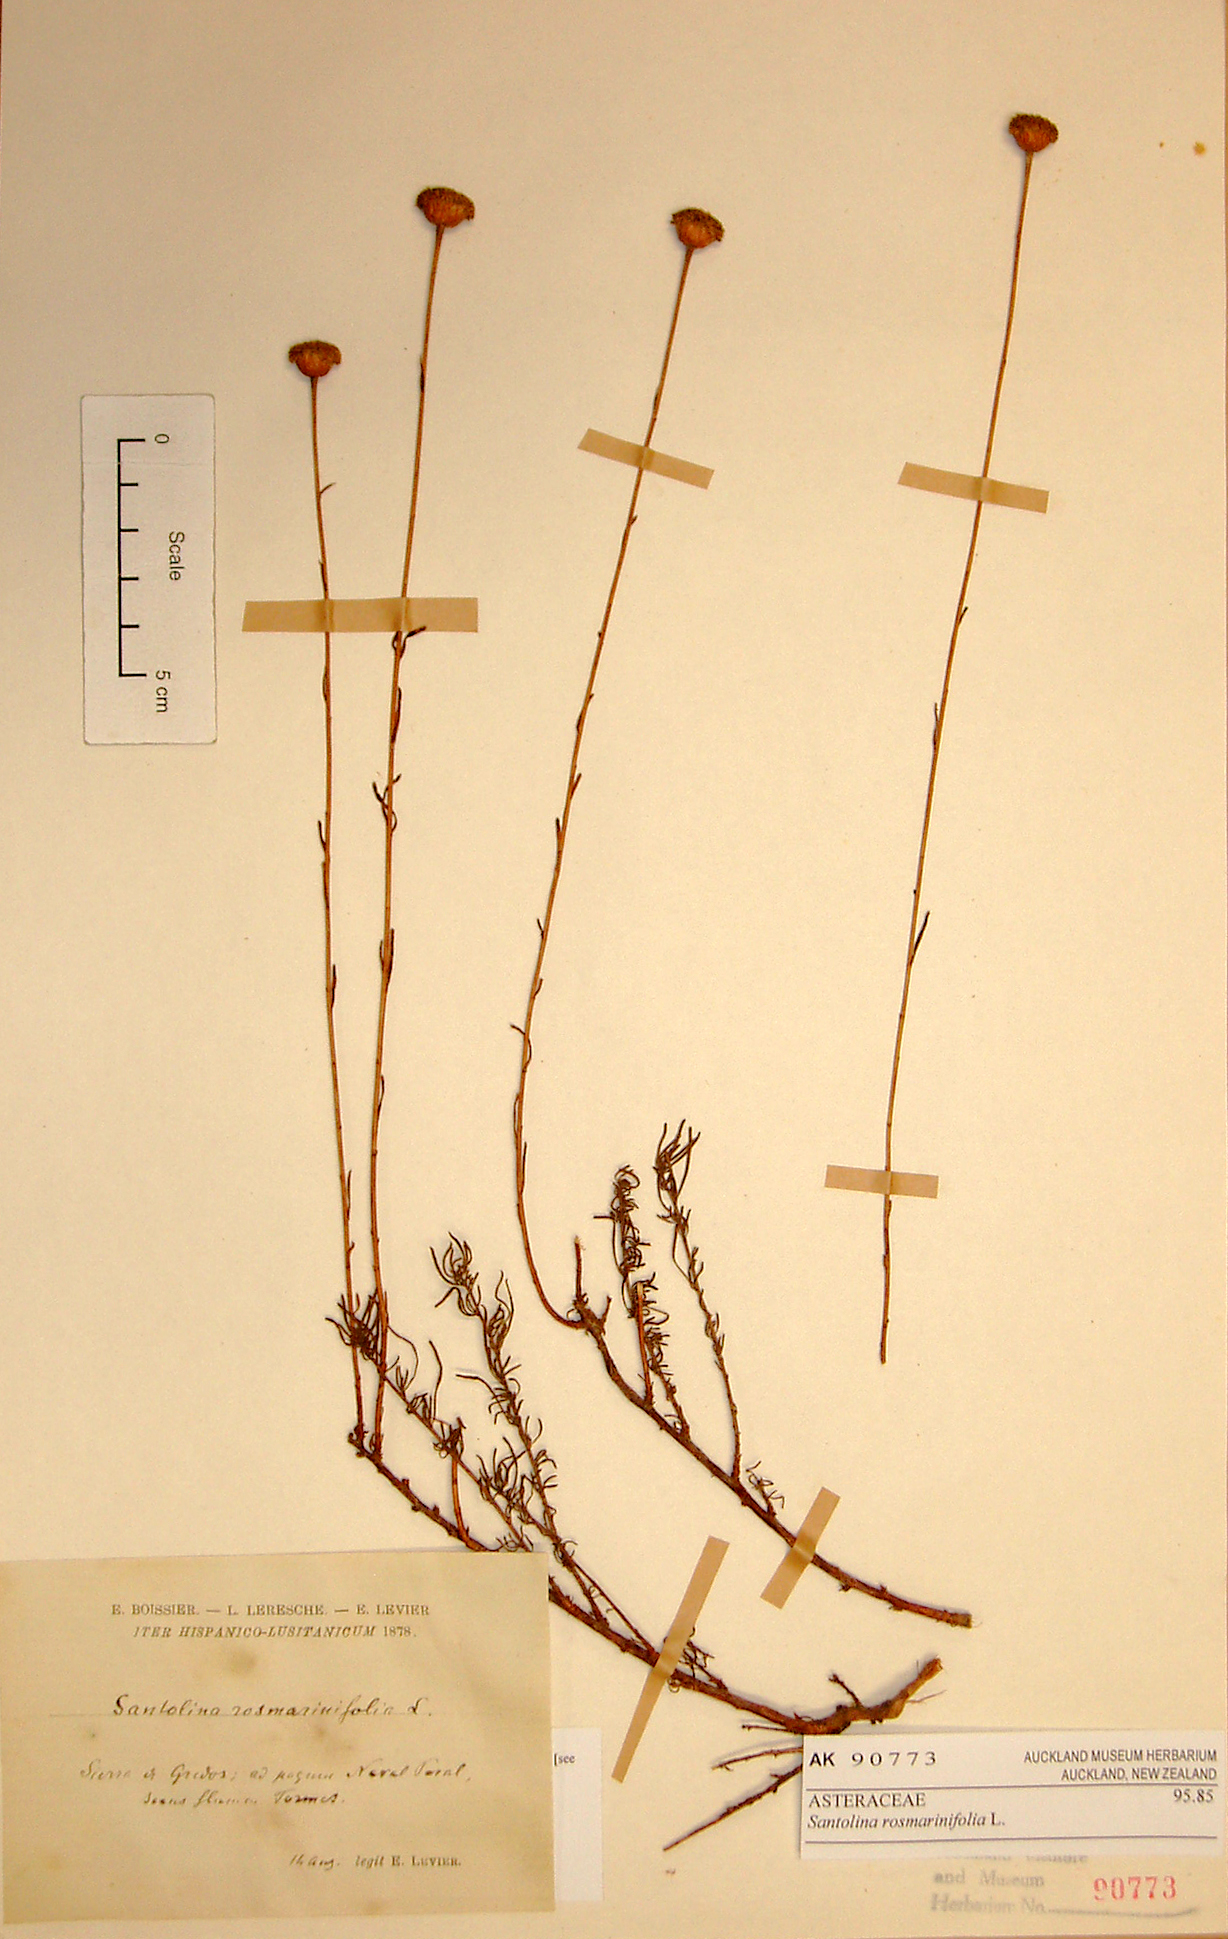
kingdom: Plantae
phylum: Tracheophyta
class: Magnoliopsida
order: Asterales
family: Asteraceae
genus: Santolina
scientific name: Santolina rosmarinifolia
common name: Holy-flax
